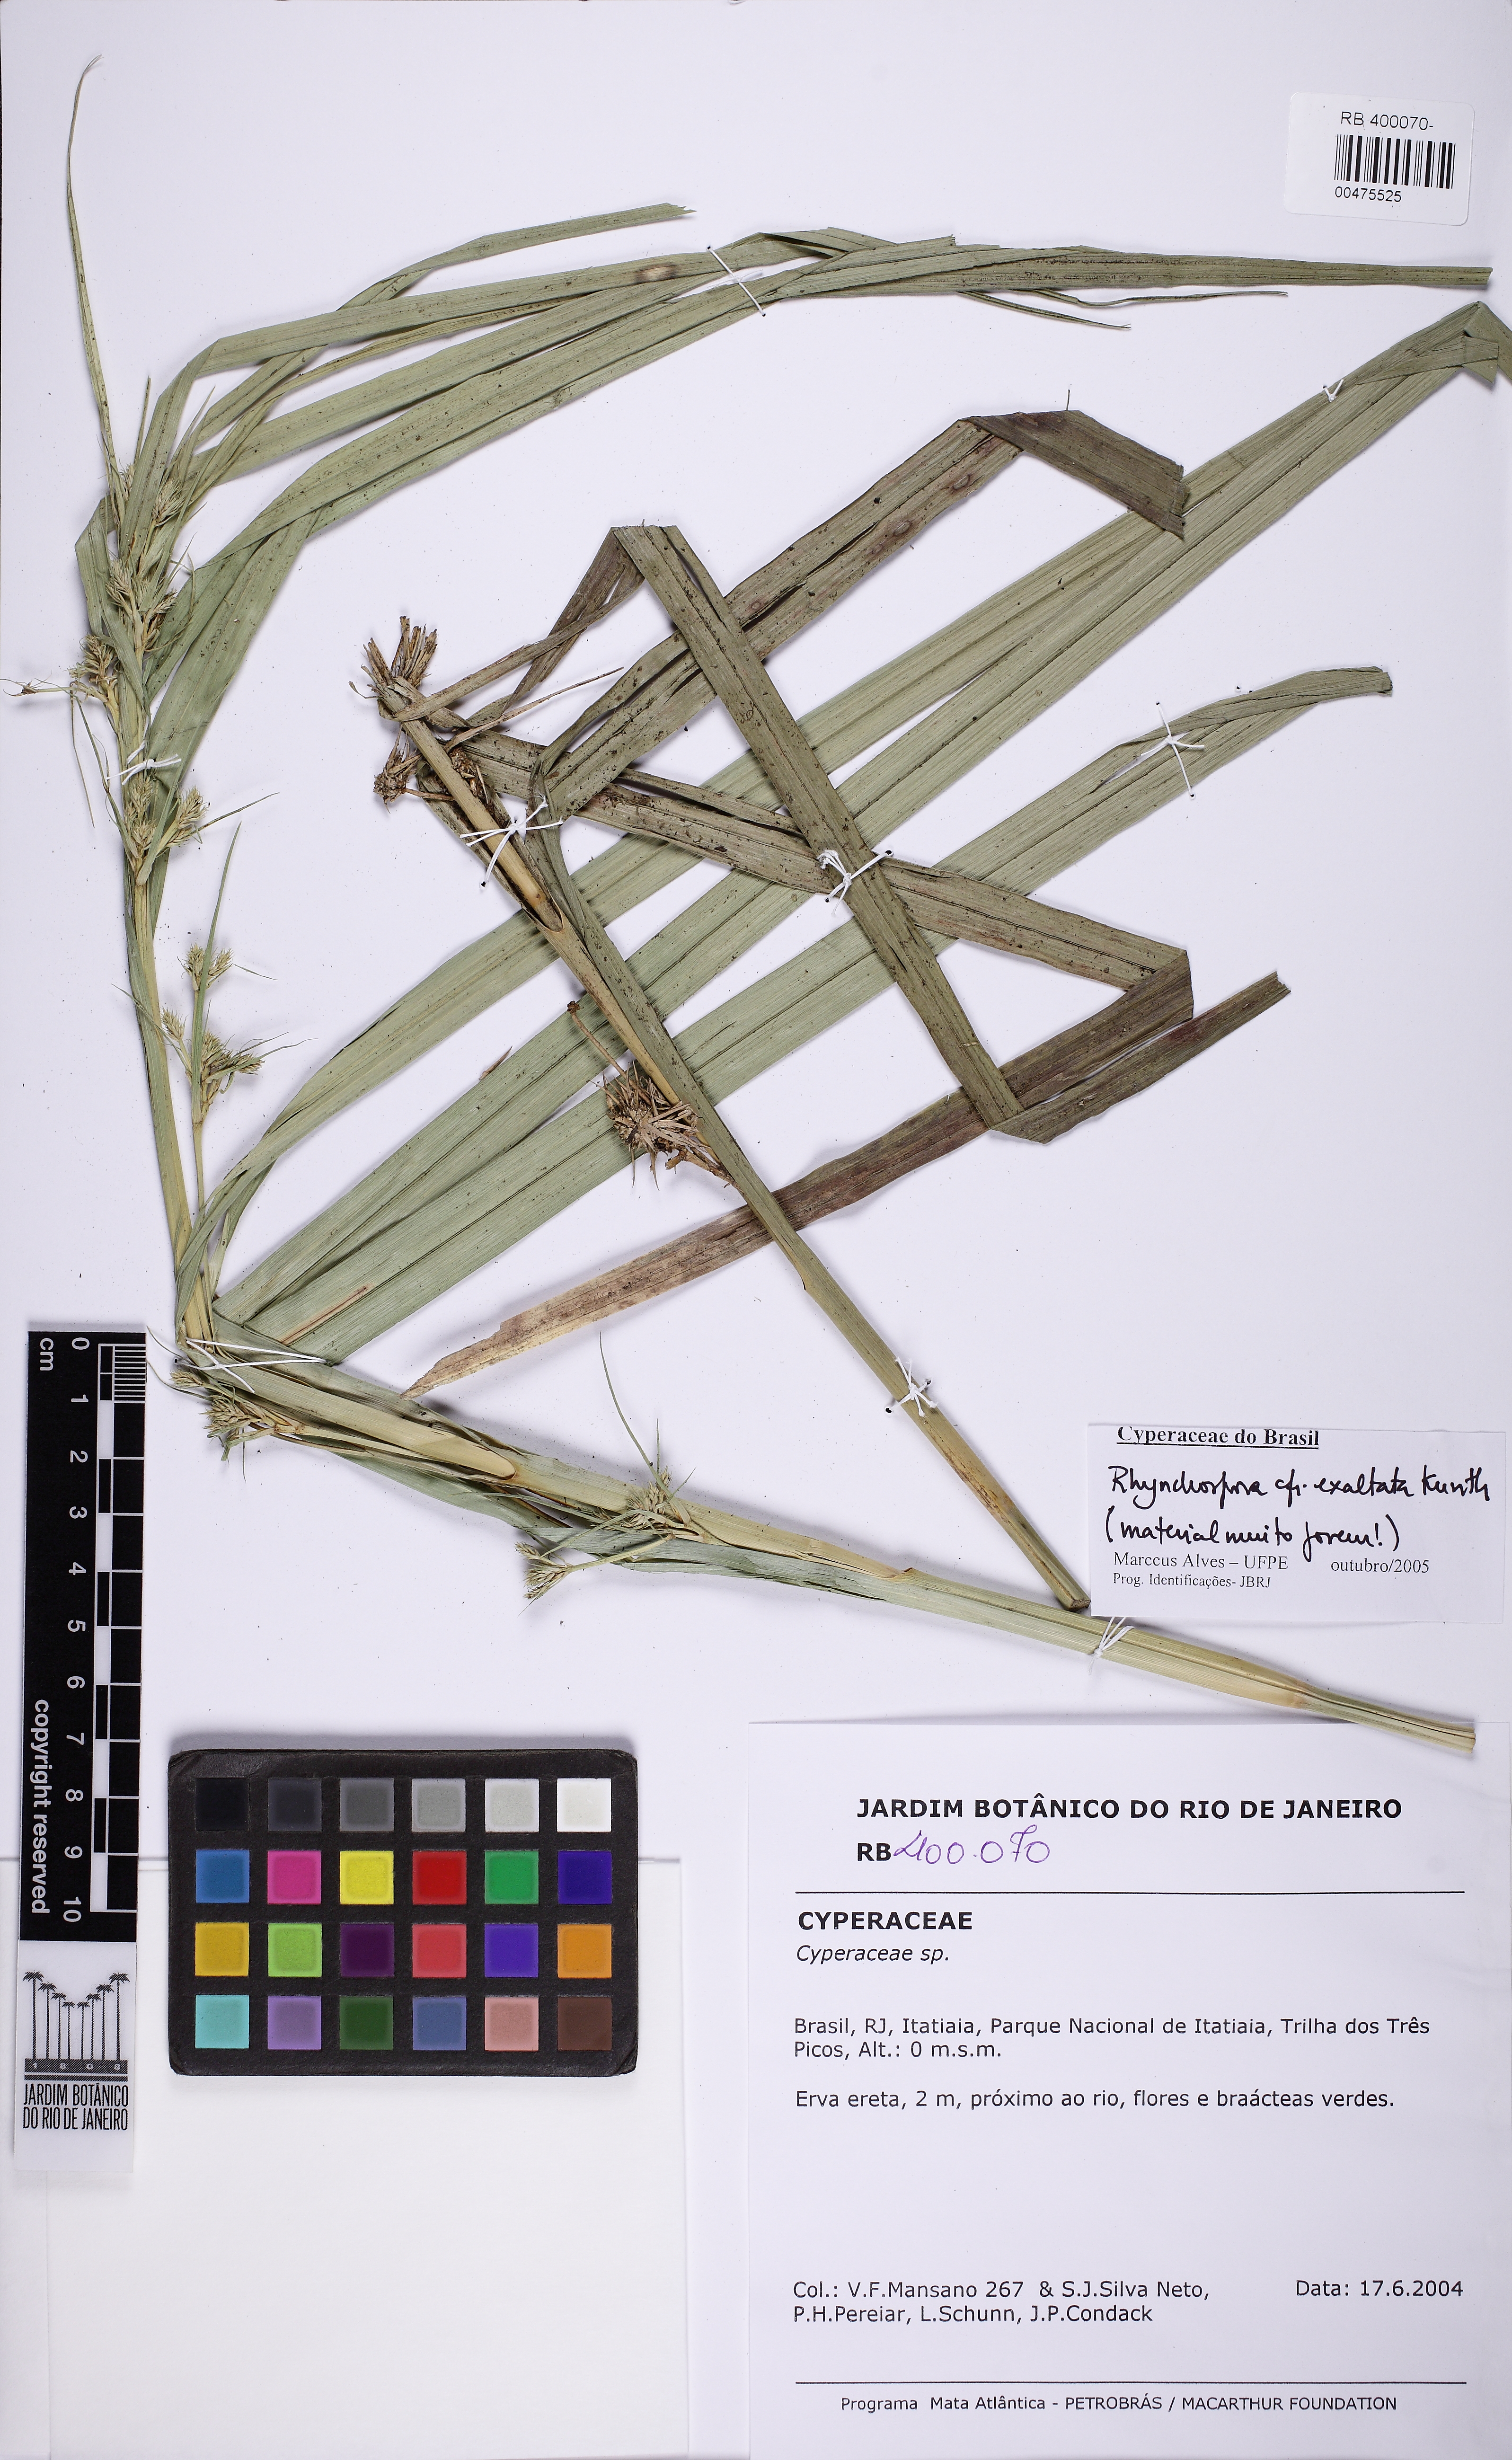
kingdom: Plantae
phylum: Tracheophyta
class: Liliopsida
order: Poales
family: Cyperaceae
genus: Rhynchospora
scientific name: Rhynchospora exaltata
